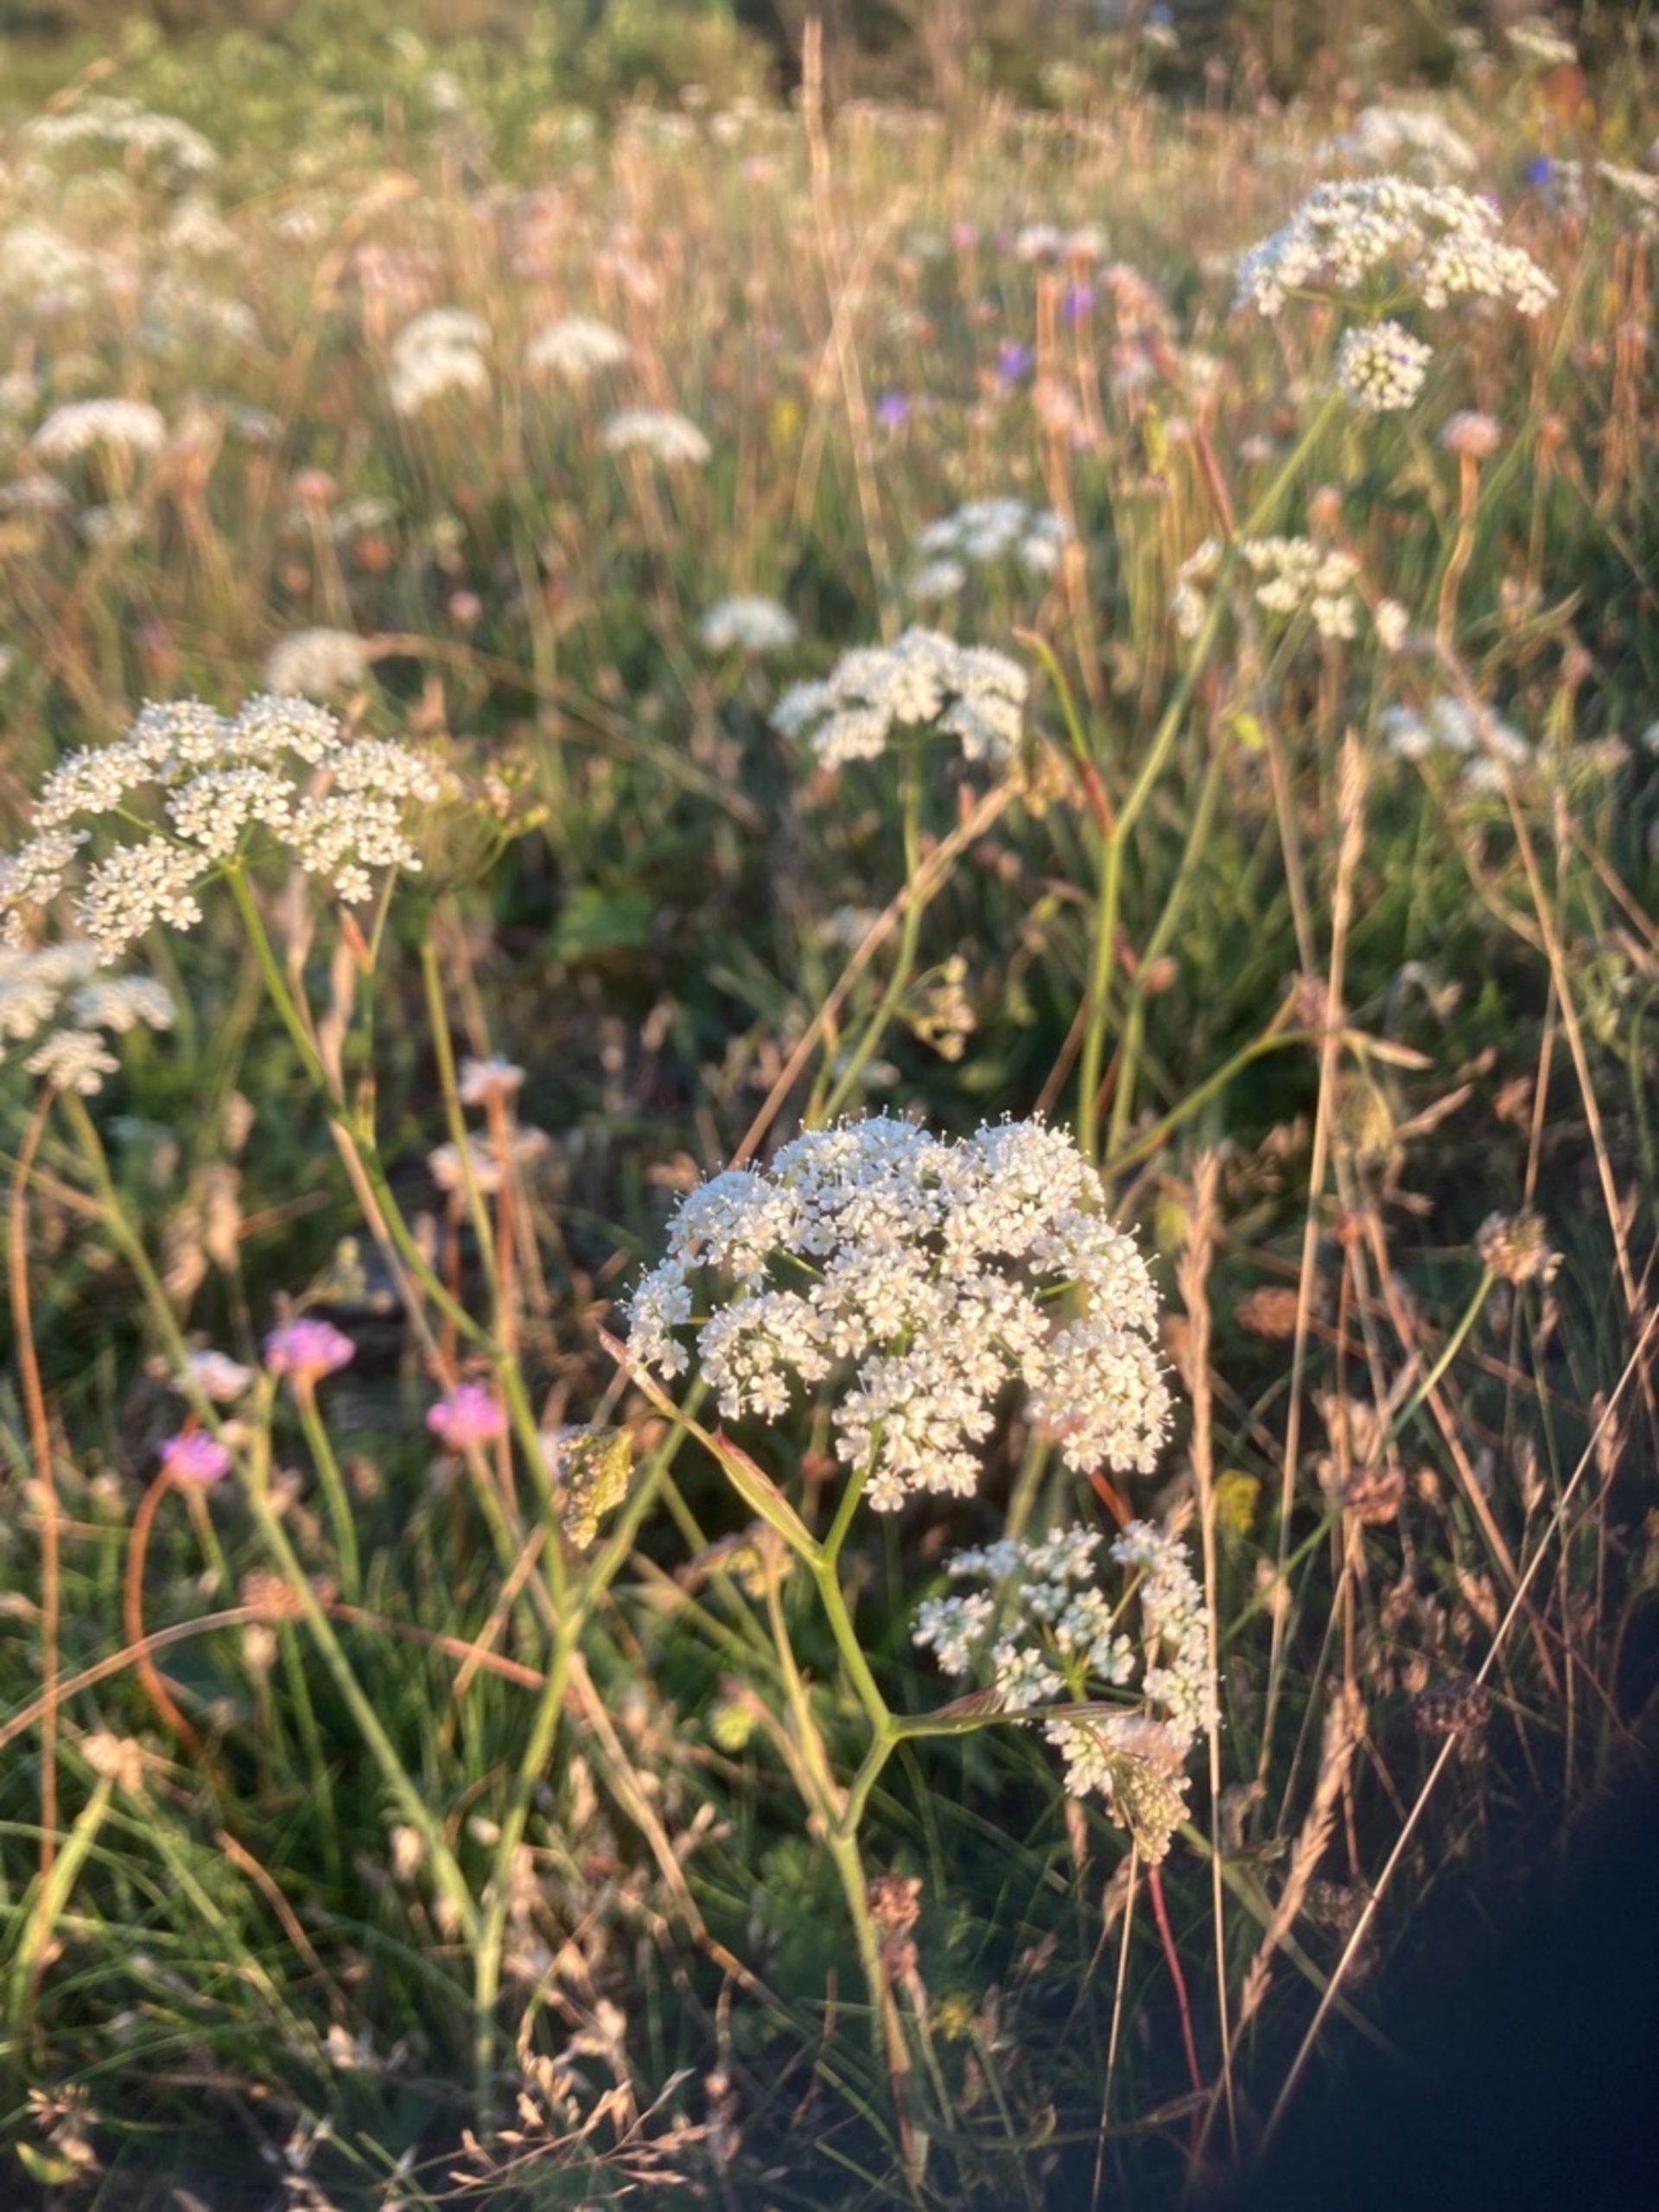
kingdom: Plantae
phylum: Tracheophyta
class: Magnoliopsida
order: Apiales
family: Apiaceae
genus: Pimpinella
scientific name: Pimpinella saxifraga
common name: Almindelig pimpinelle
